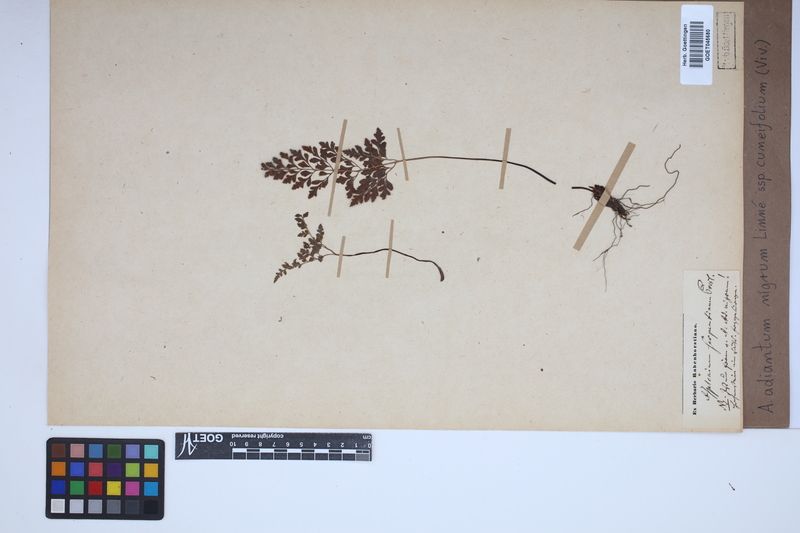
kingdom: Plantae
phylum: Tracheophyta
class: Polypodiopsida
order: Polypodiales
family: Aspleniaceae
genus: Asplenium
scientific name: Asplenium cuneifolium
